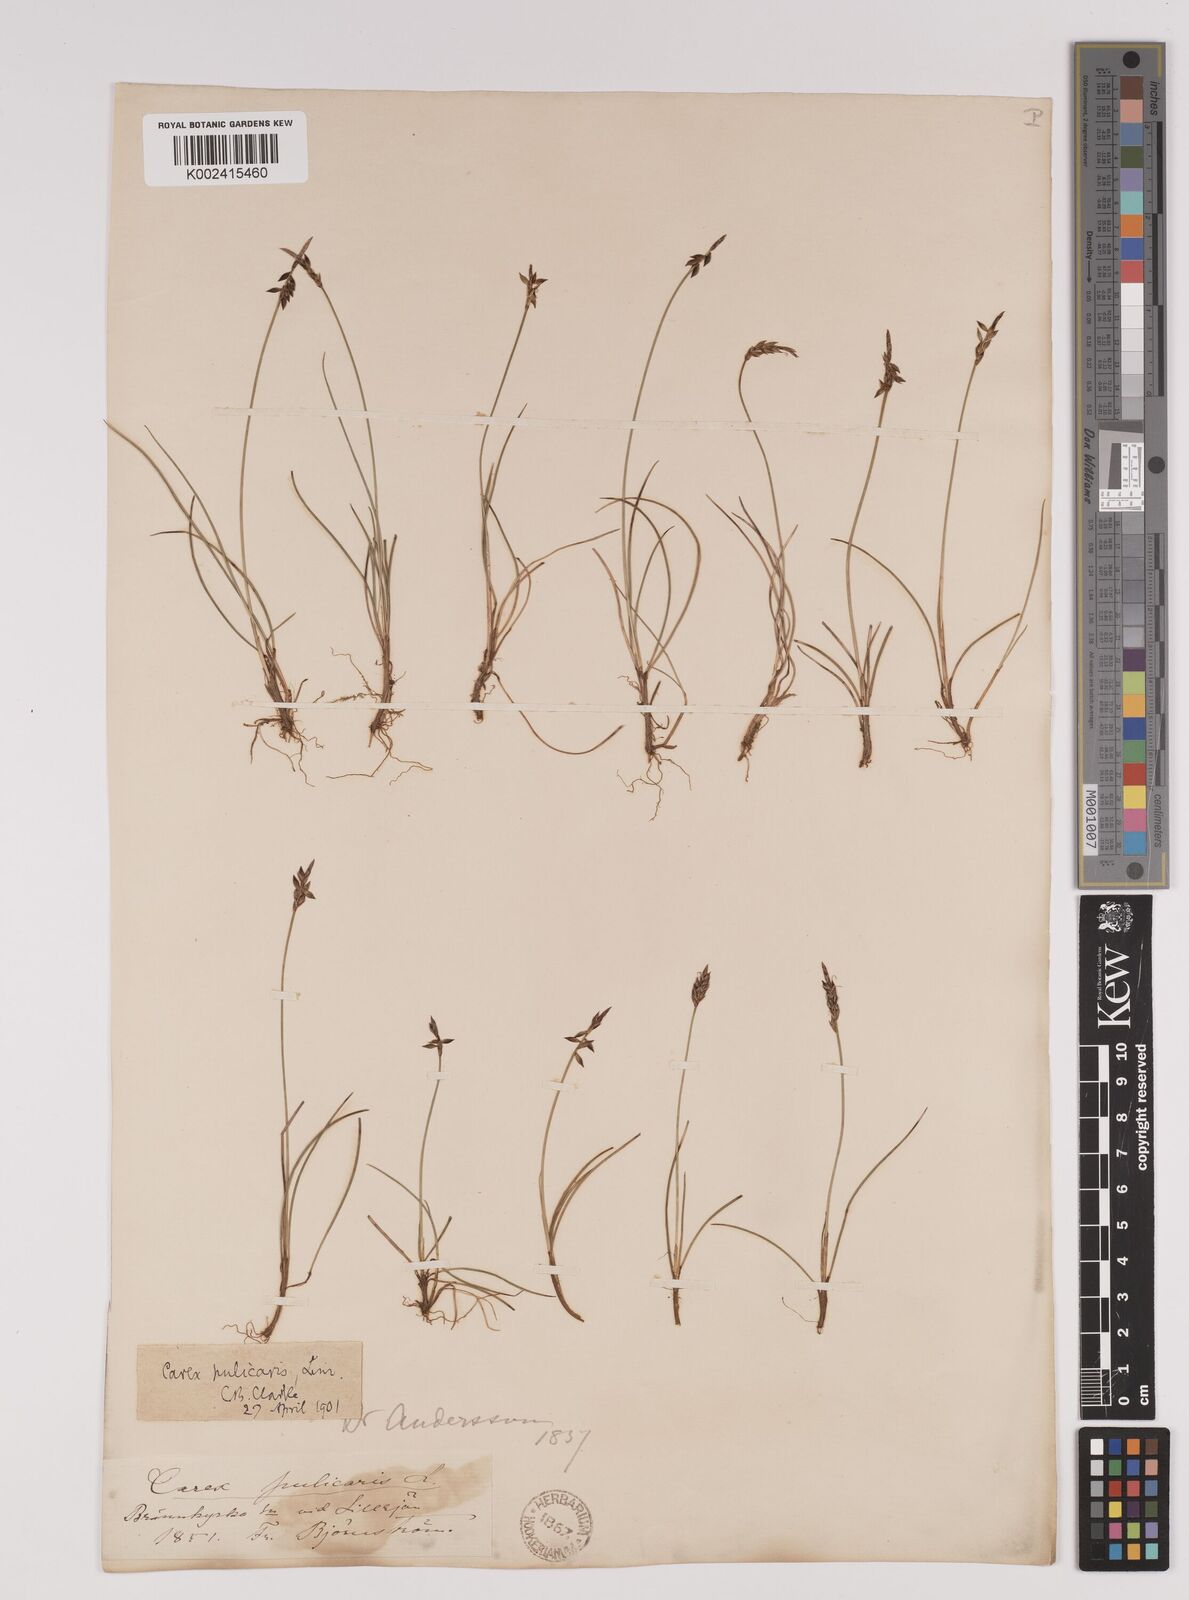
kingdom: Plantae
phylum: Tracheophyta
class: Liliopsida
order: Poales
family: Cyperaceae
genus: Carex
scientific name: Carex pulicaris
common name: Flea sedge
